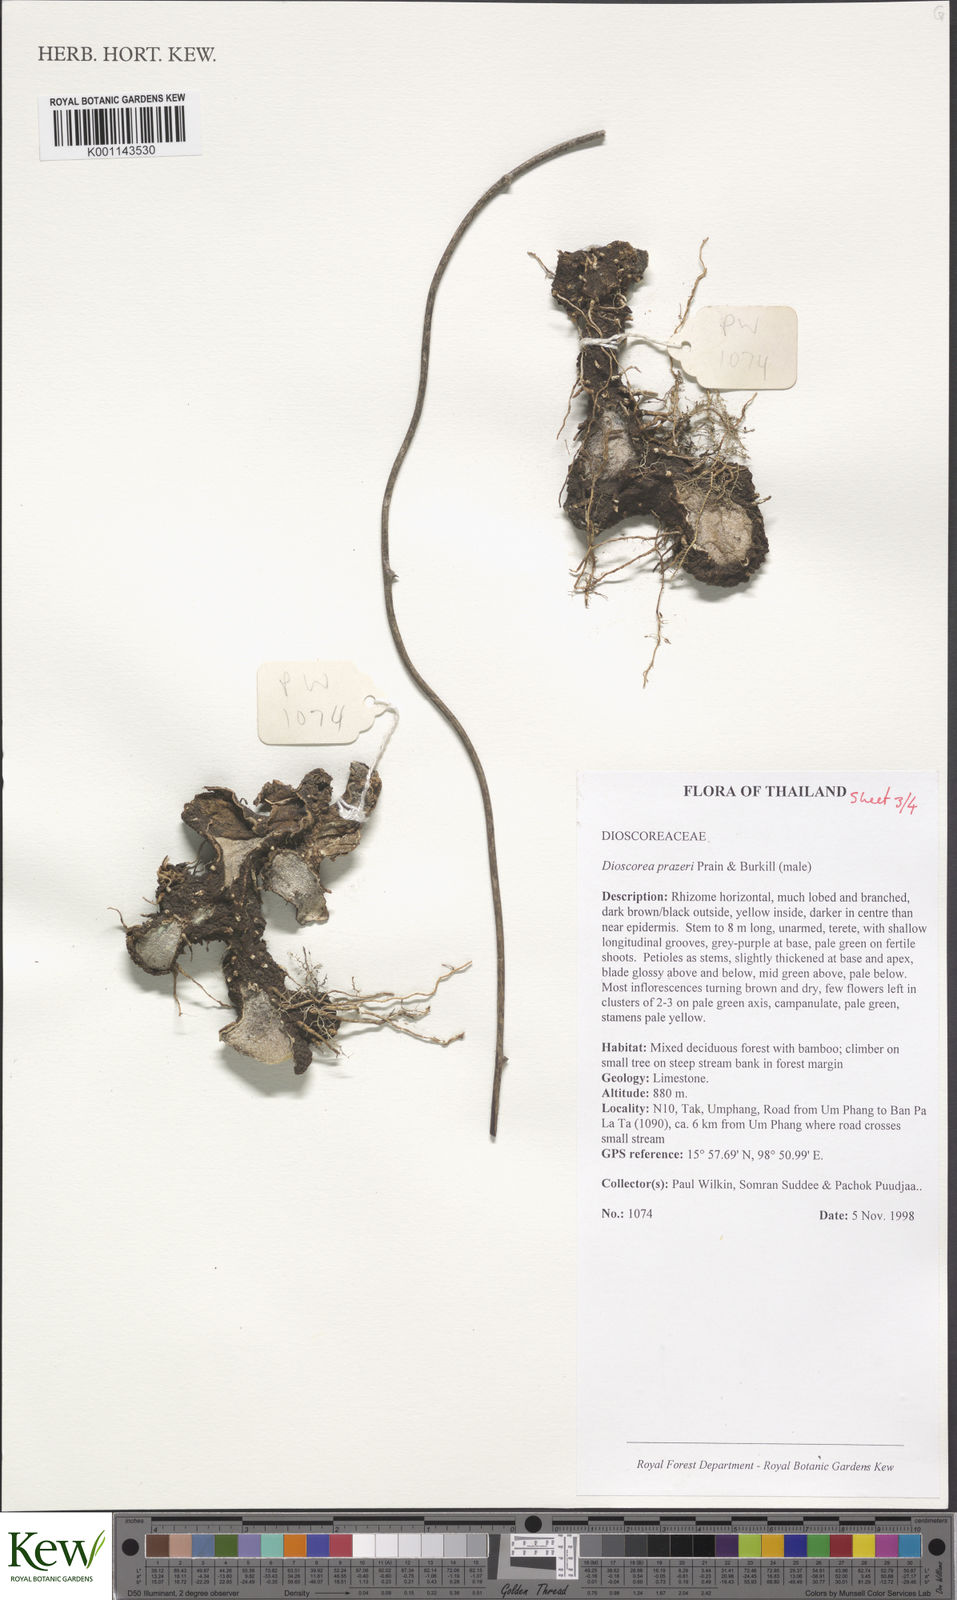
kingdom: Plantae
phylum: Tracheophyta
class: Liliopsida
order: Dioscoreales
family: Dioscoreaceae
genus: Dioscorea
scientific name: Dioscorea prazeri
